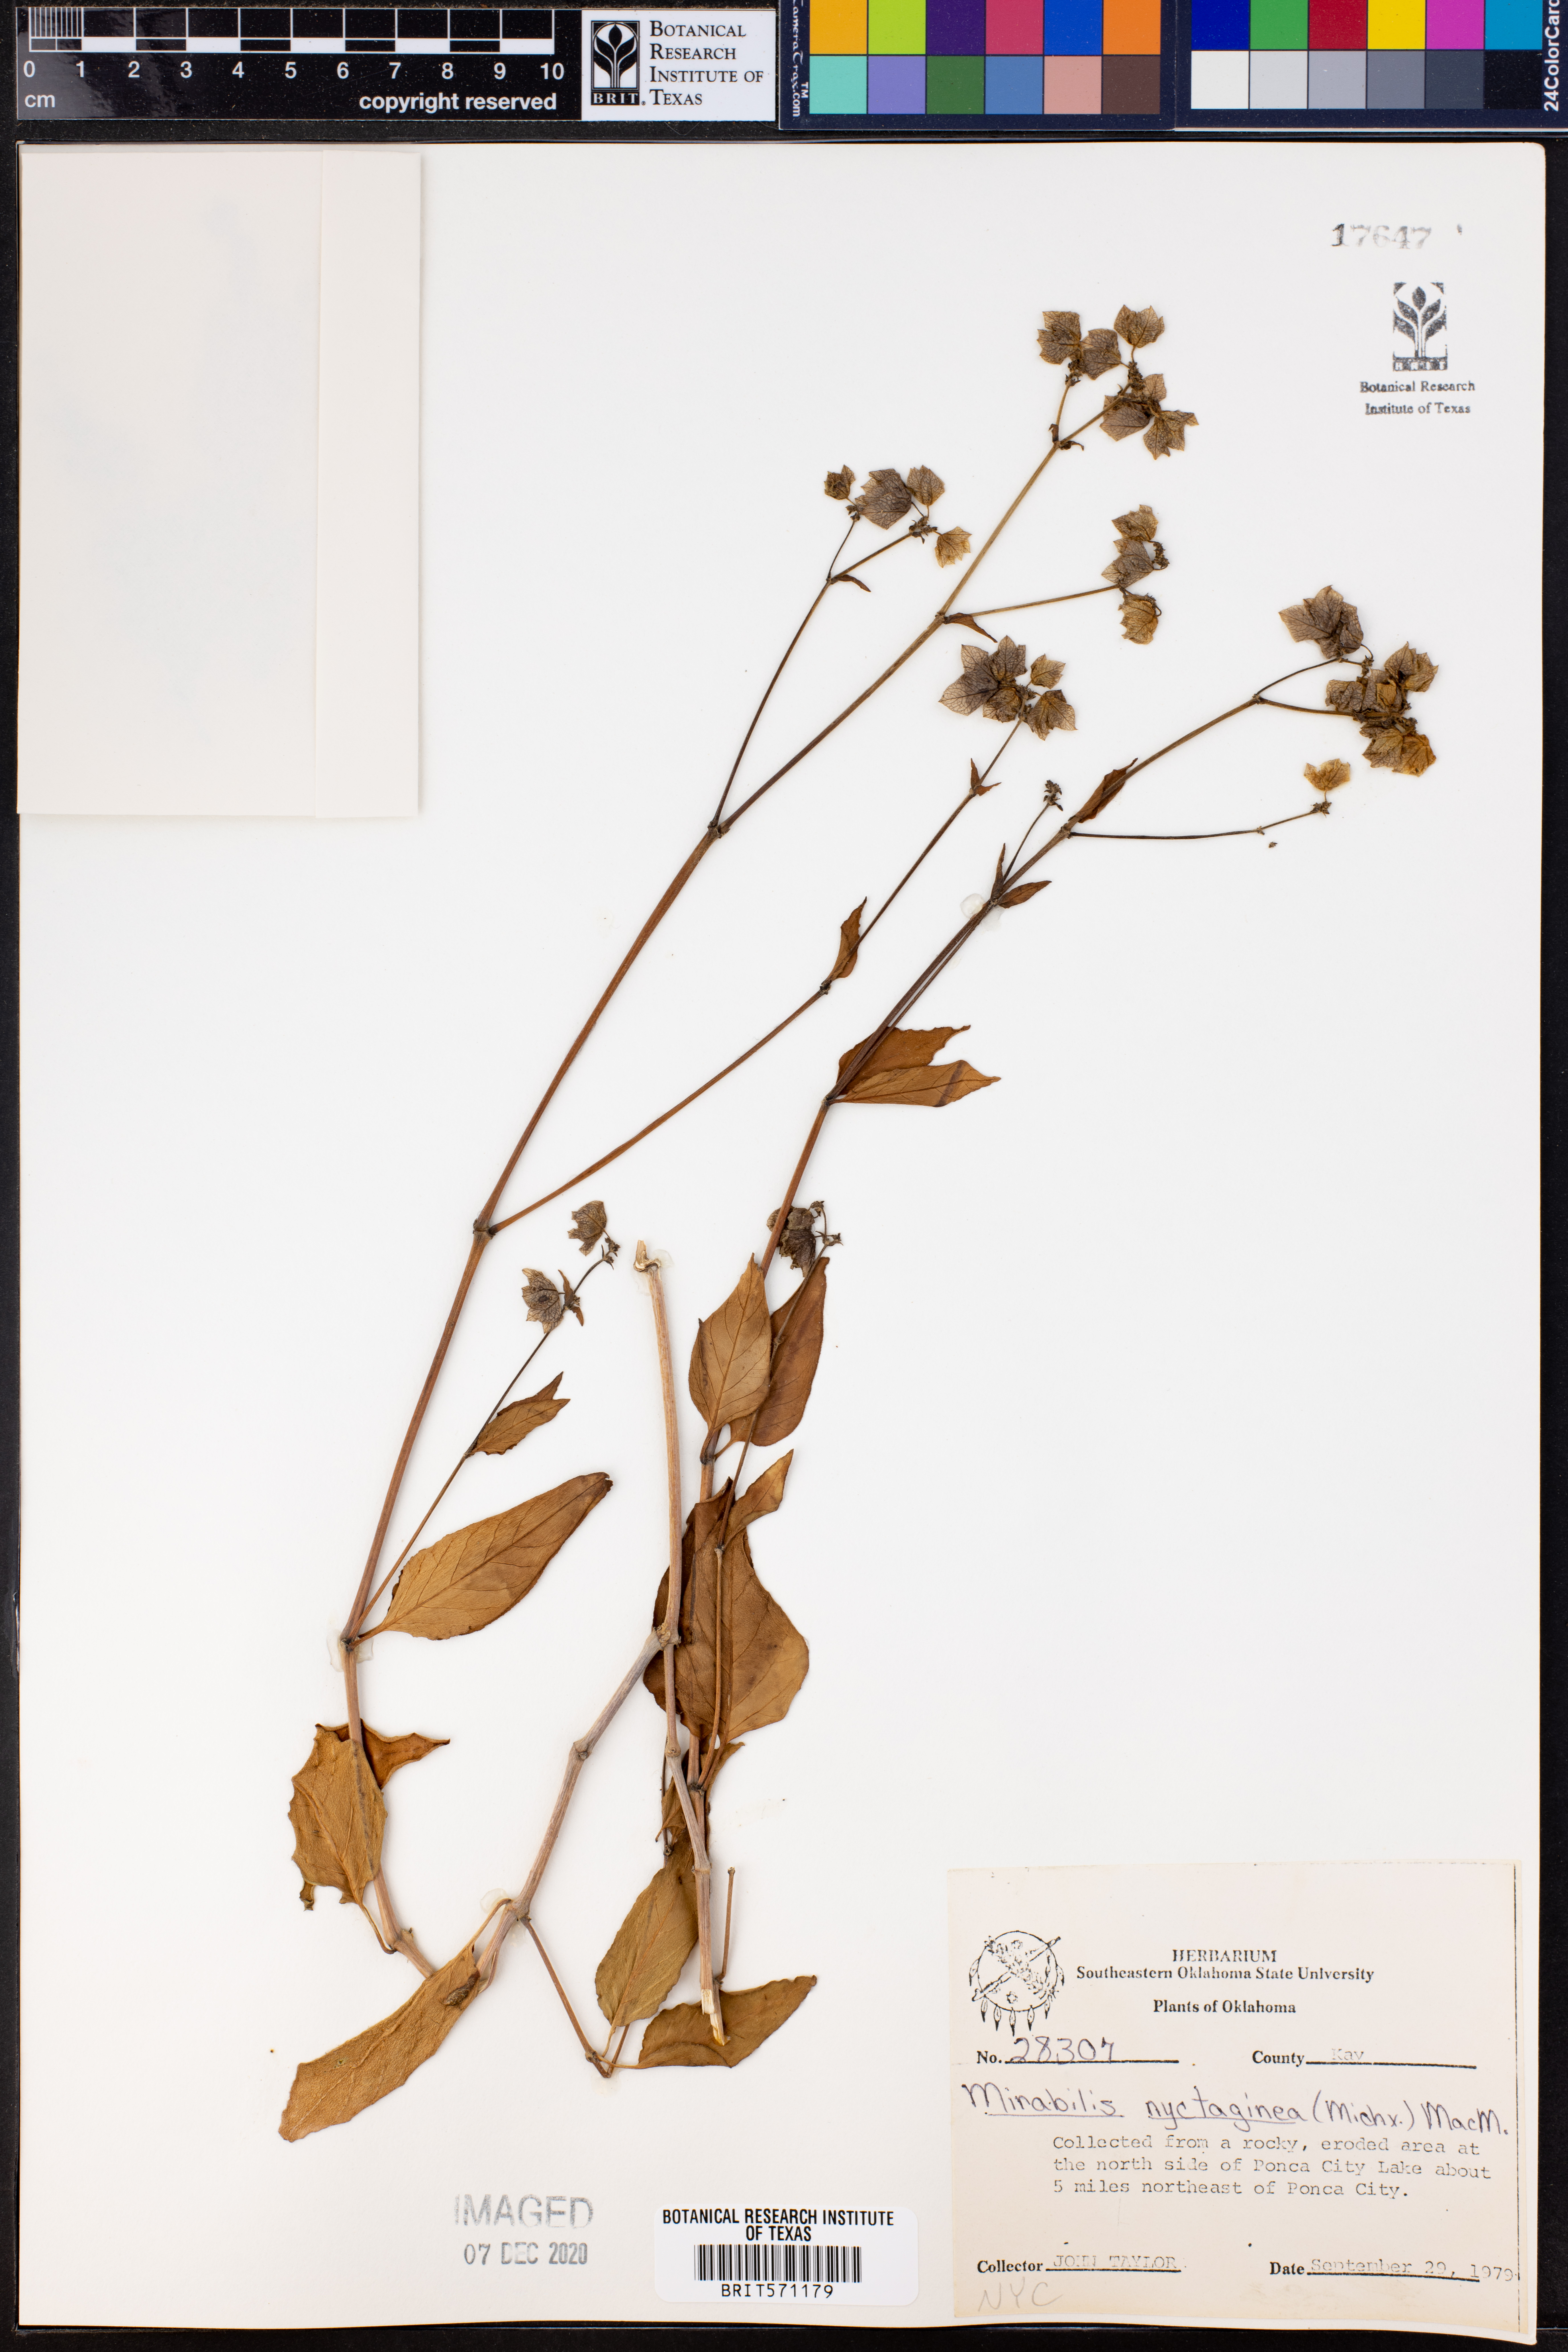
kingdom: Plantae
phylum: Tracheophyta
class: Magnoliopsida
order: Caryophyllales
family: Nyctaginaceae
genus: Mirabilis
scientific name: Mirabilis nyctaginea
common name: Umbrella wort
